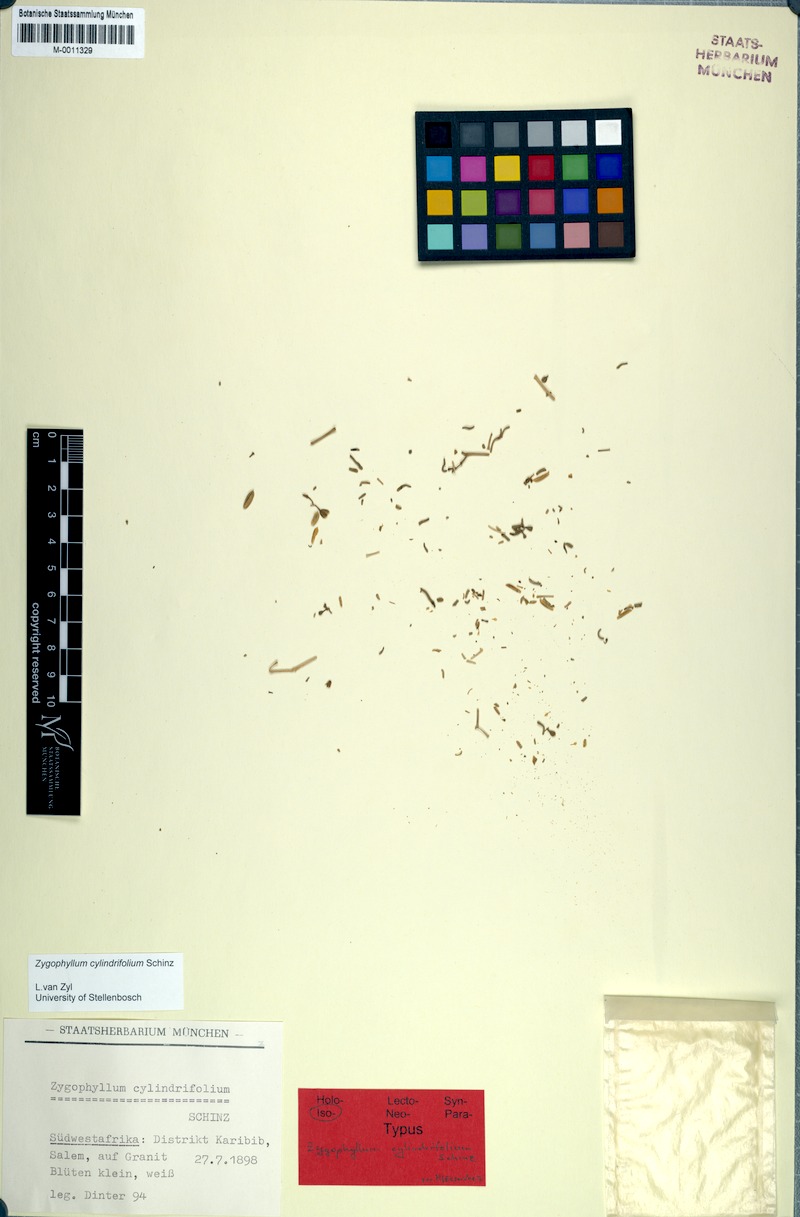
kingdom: Plantae
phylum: Tracheophyta
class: Magnoliopsida
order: Zygophyllales
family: Zygophyllaceae
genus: Tetraena
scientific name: Tetraena cylindrifolia
